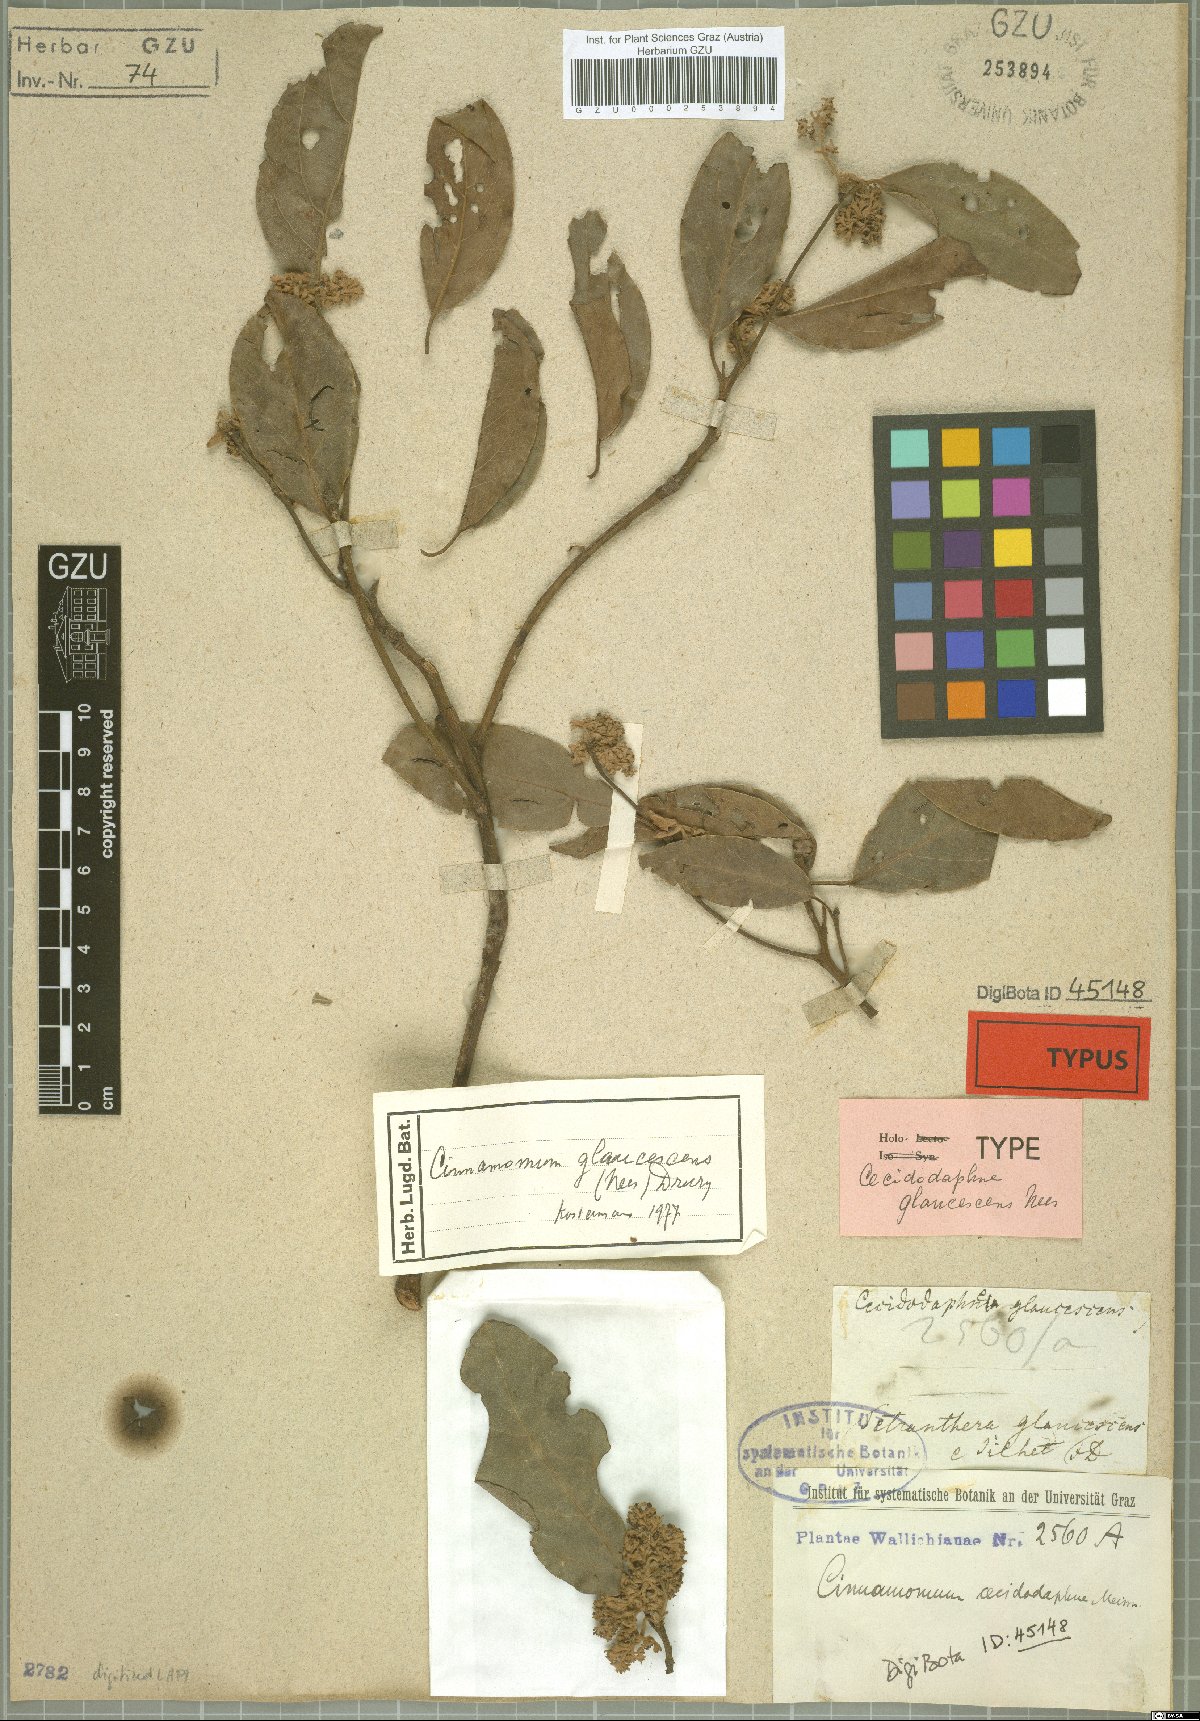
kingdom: Plantae
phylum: Tracheophyta
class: Magnoliopsida
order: Laurales
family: Lauraceae
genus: Cinnamomum
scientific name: Cinnamomum glaucescens
